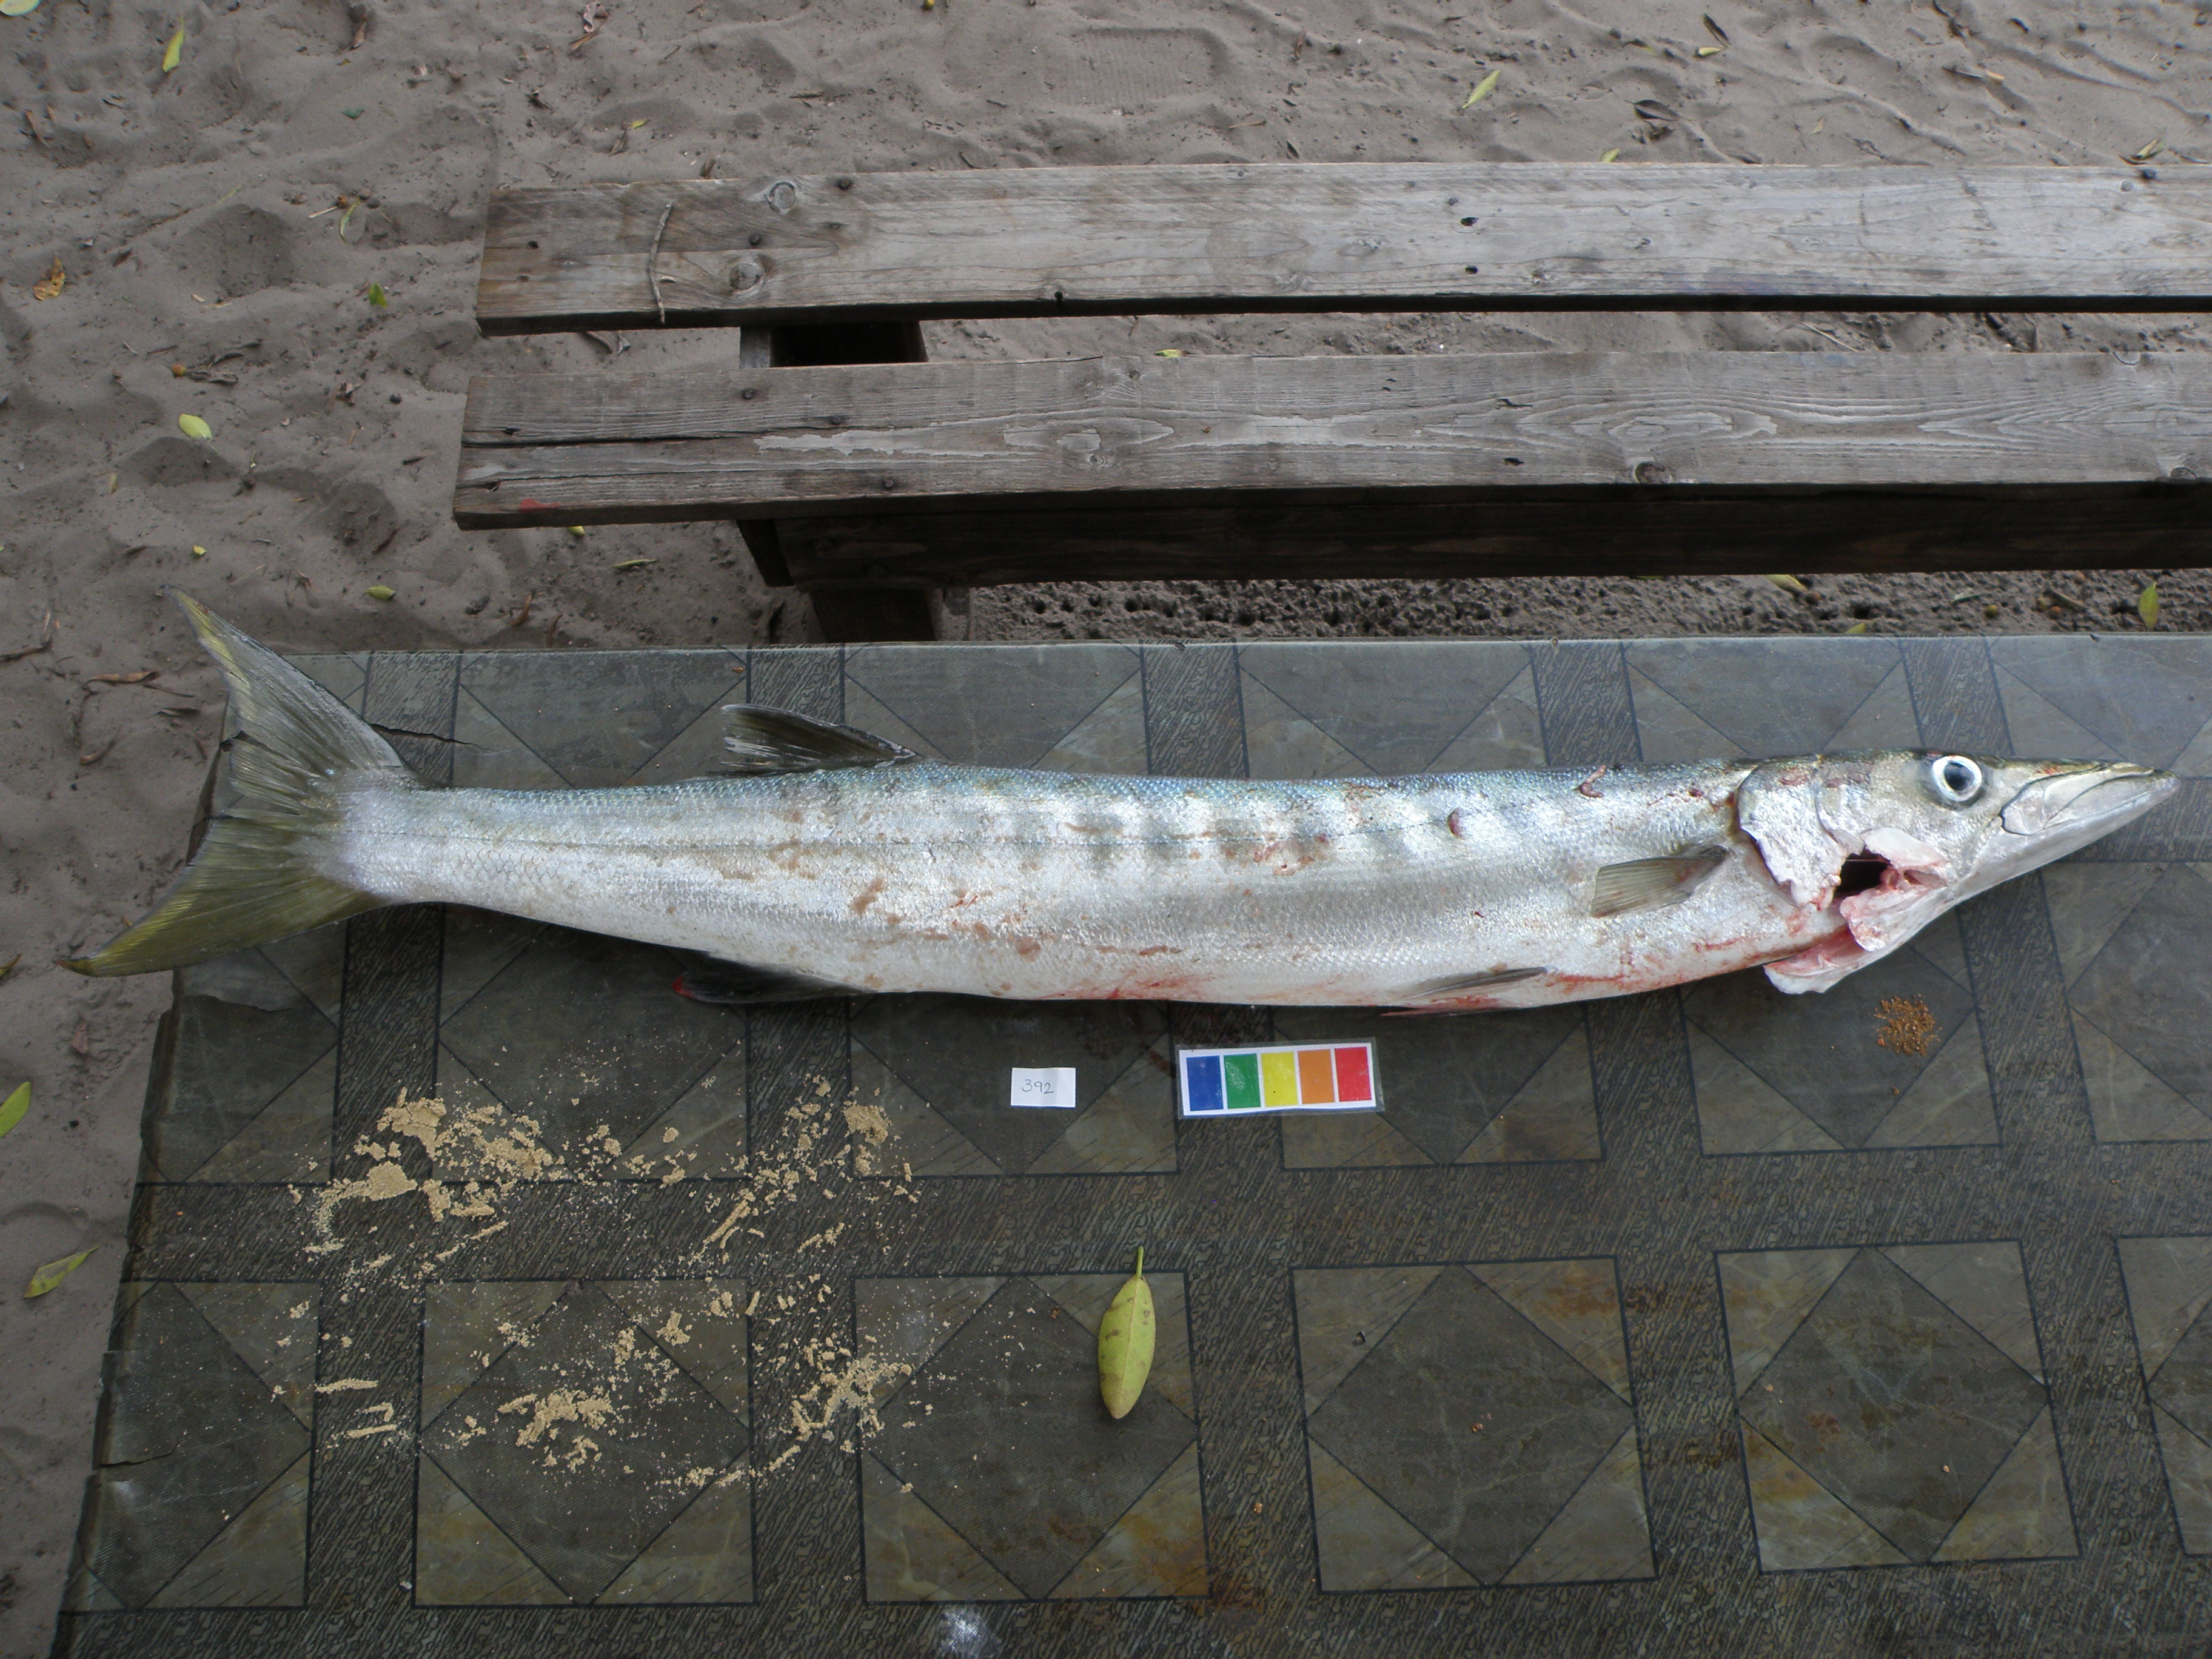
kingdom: Animalia
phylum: Chordata
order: Perciformes
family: Sphyraenidae
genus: Sphyraena
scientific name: Sphyraena jello
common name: Pickhandle barracuda
